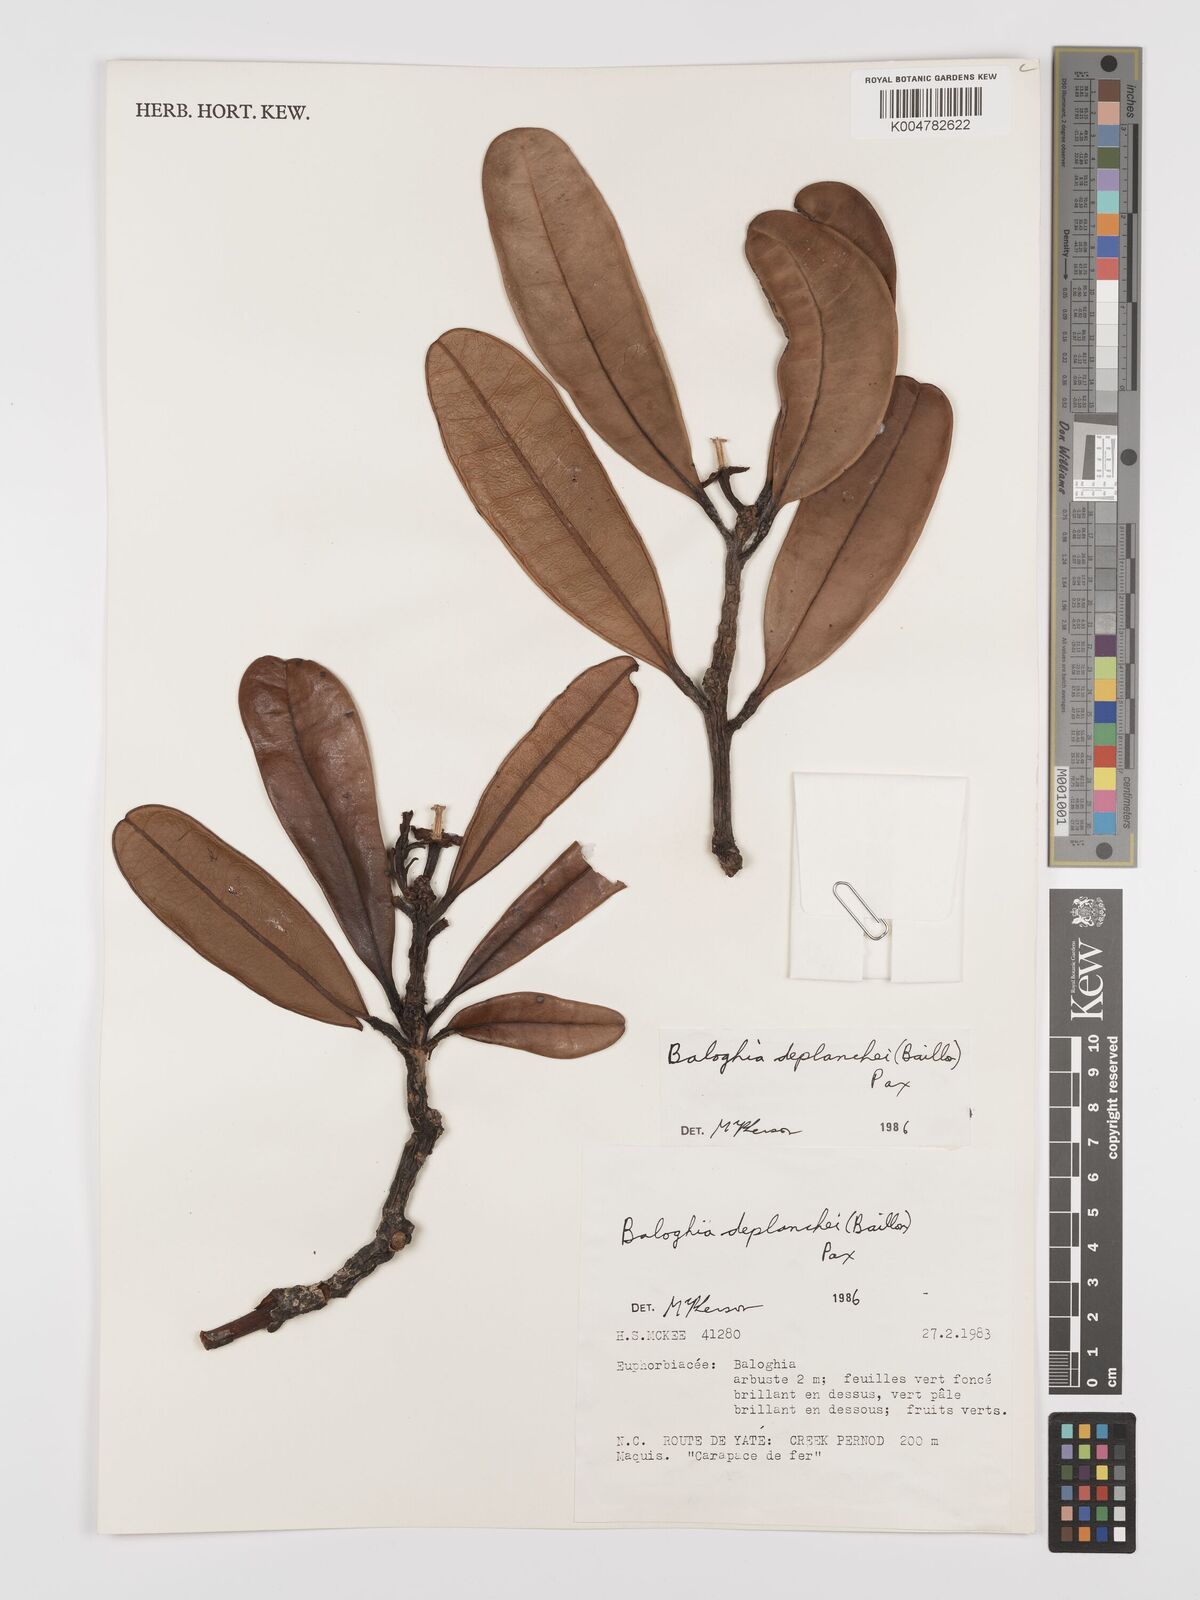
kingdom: Plantae
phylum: Tracheophyta
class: Magnoliopsida
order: Malpighiales
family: Euphorbiaceae
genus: Baloghia
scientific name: Baloghia deplanchei
